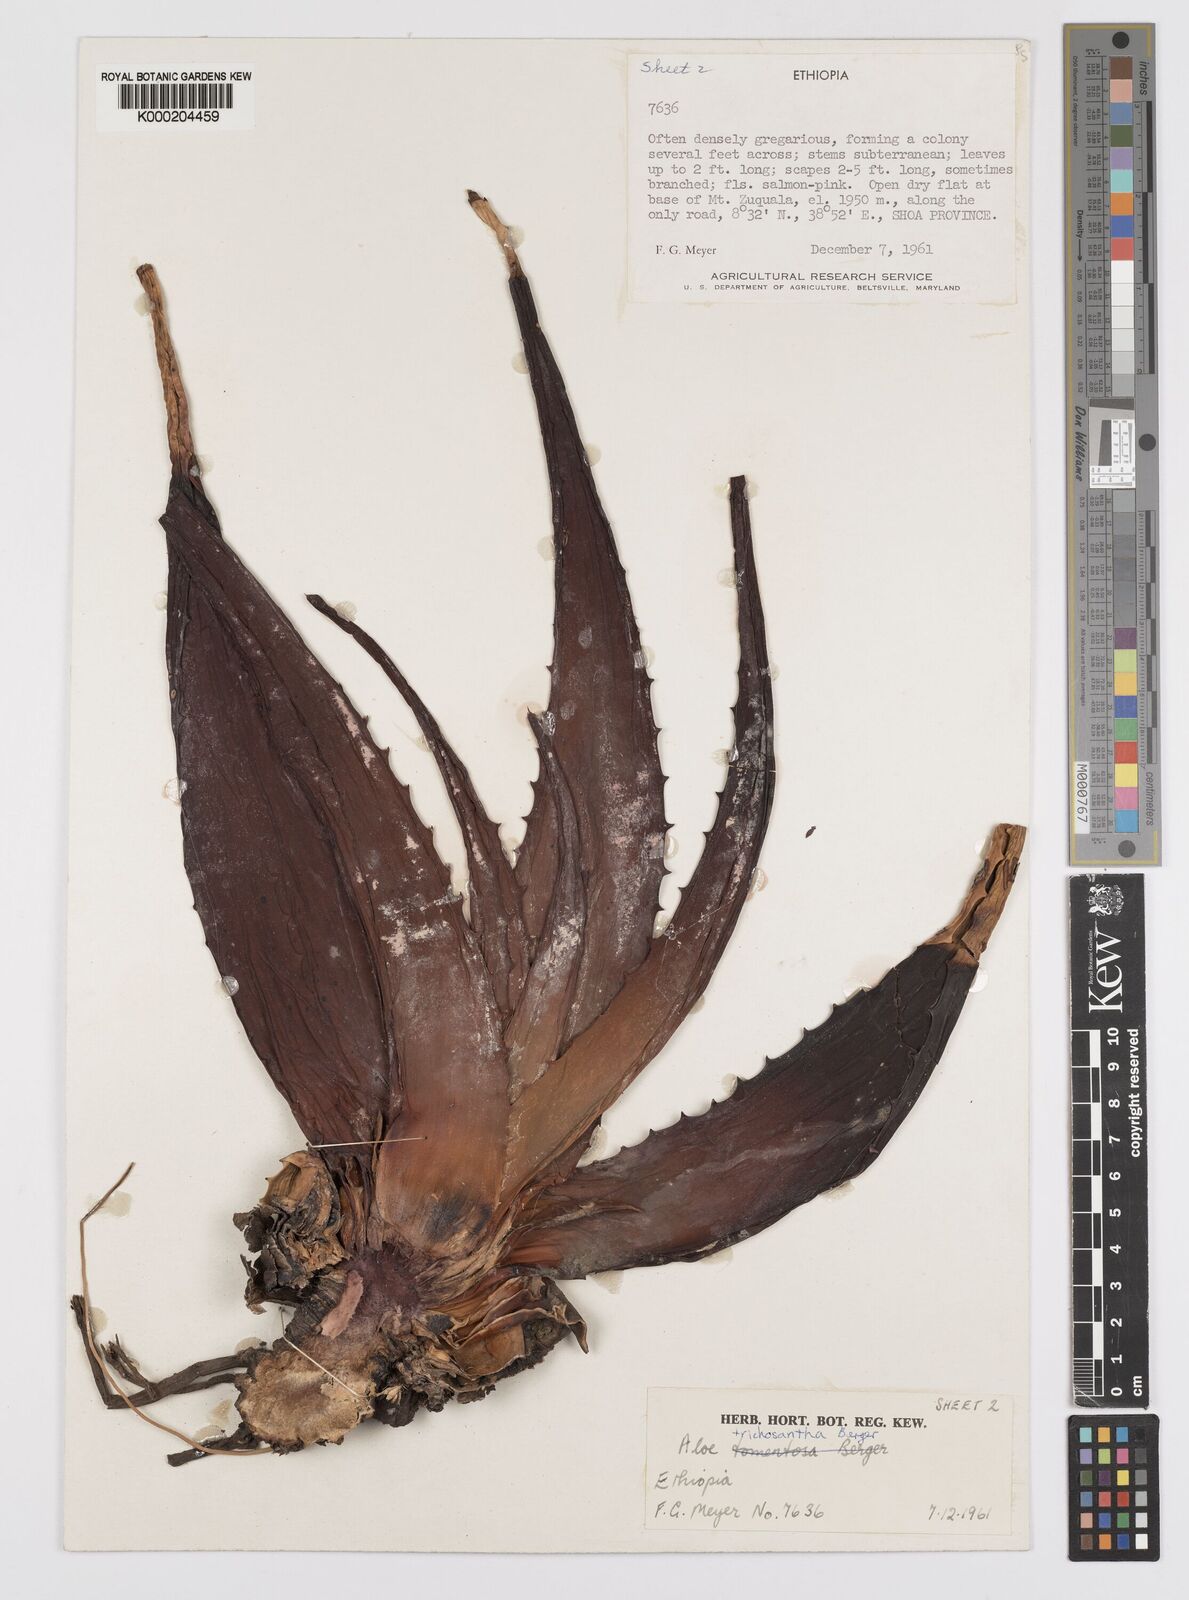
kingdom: Plantae
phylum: Tracheophyta
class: Liliopsida
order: Asparagales
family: Asphodelaceae
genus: Aloe
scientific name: Aloe trichosantha
